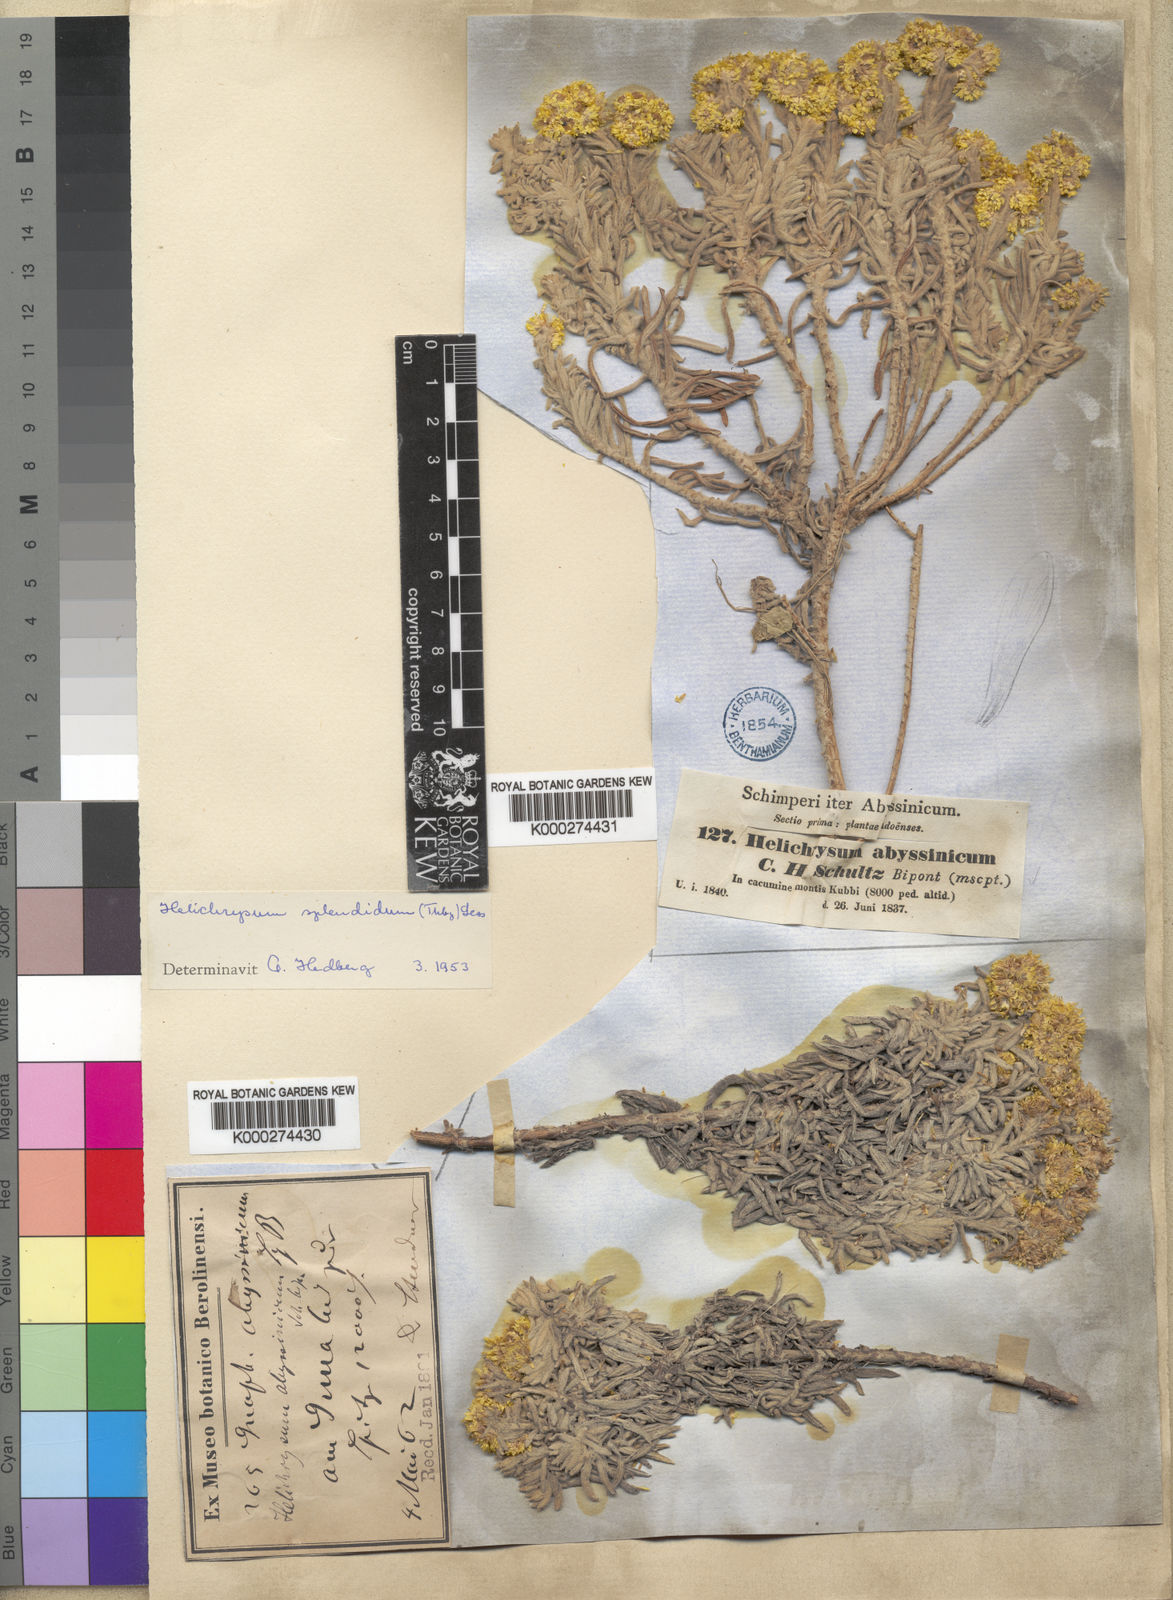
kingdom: Plantae
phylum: Tracheophyta
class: Magnoliopsida
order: Asterales
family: Asteraceae
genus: Helichrysum
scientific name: Helichrysum splendidum
